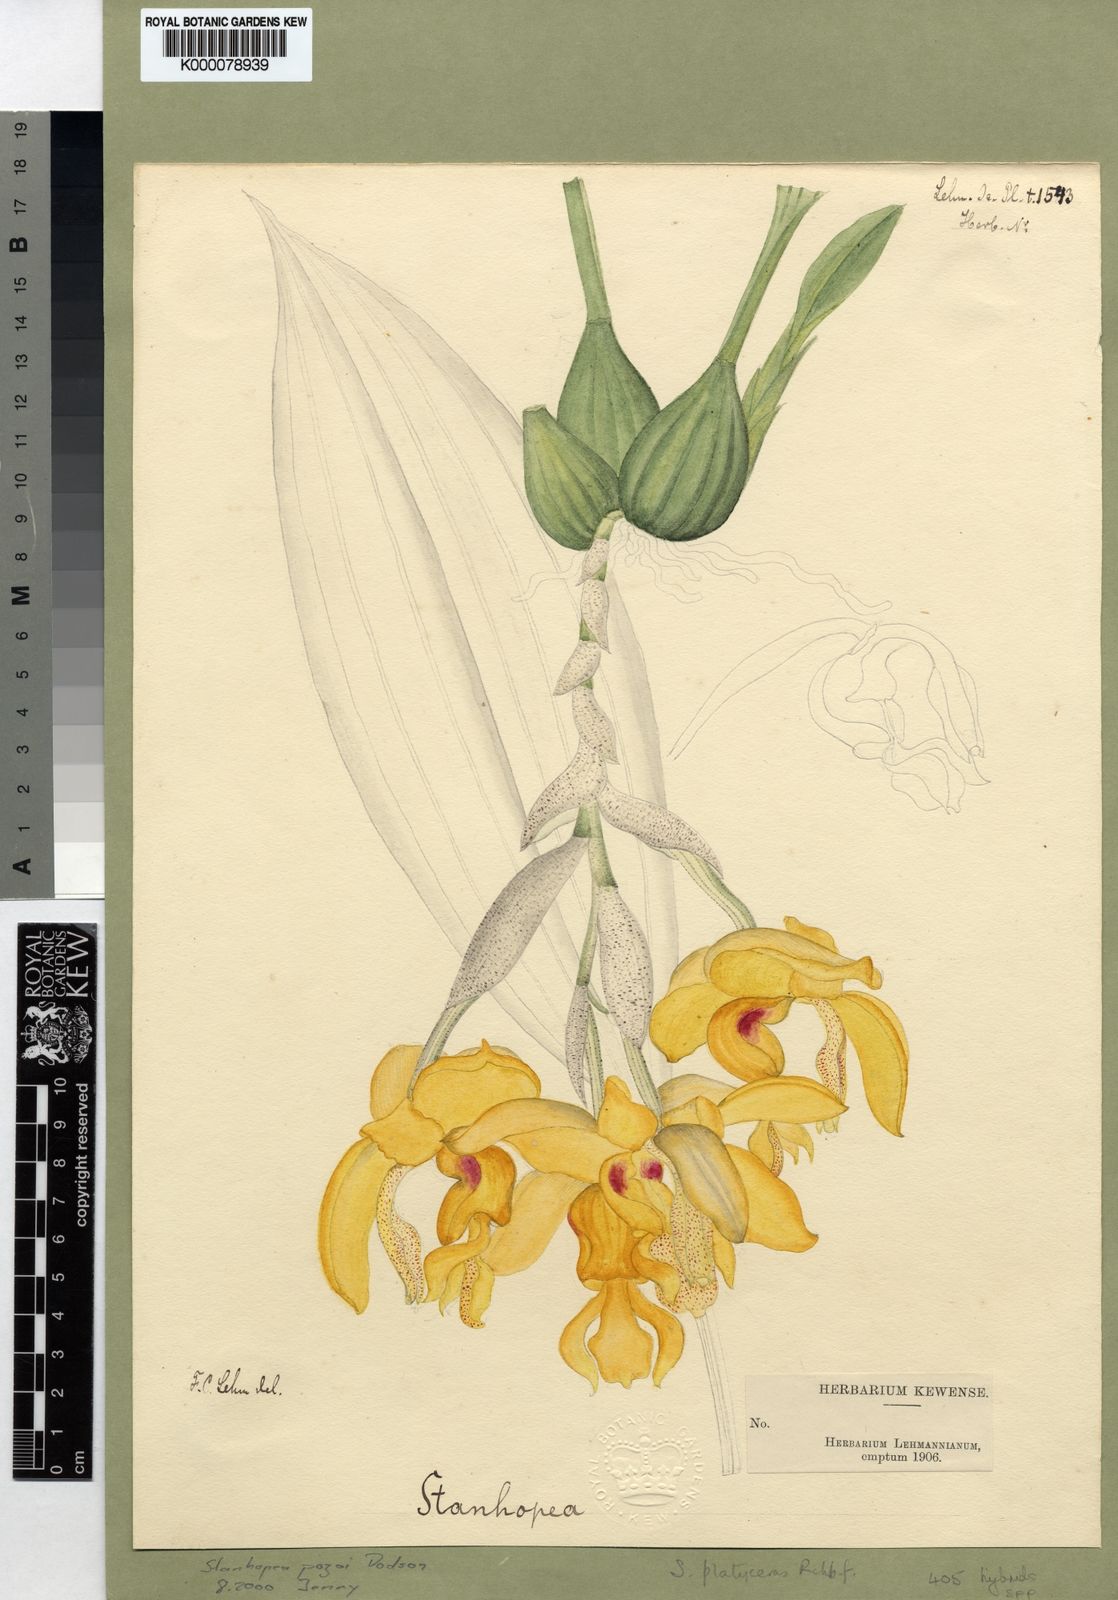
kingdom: Plantae
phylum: Tracheophyta
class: Liliopsida
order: Asparagales
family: Orchidaceae
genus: Stanhopea
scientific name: Stanhopea pozoi
